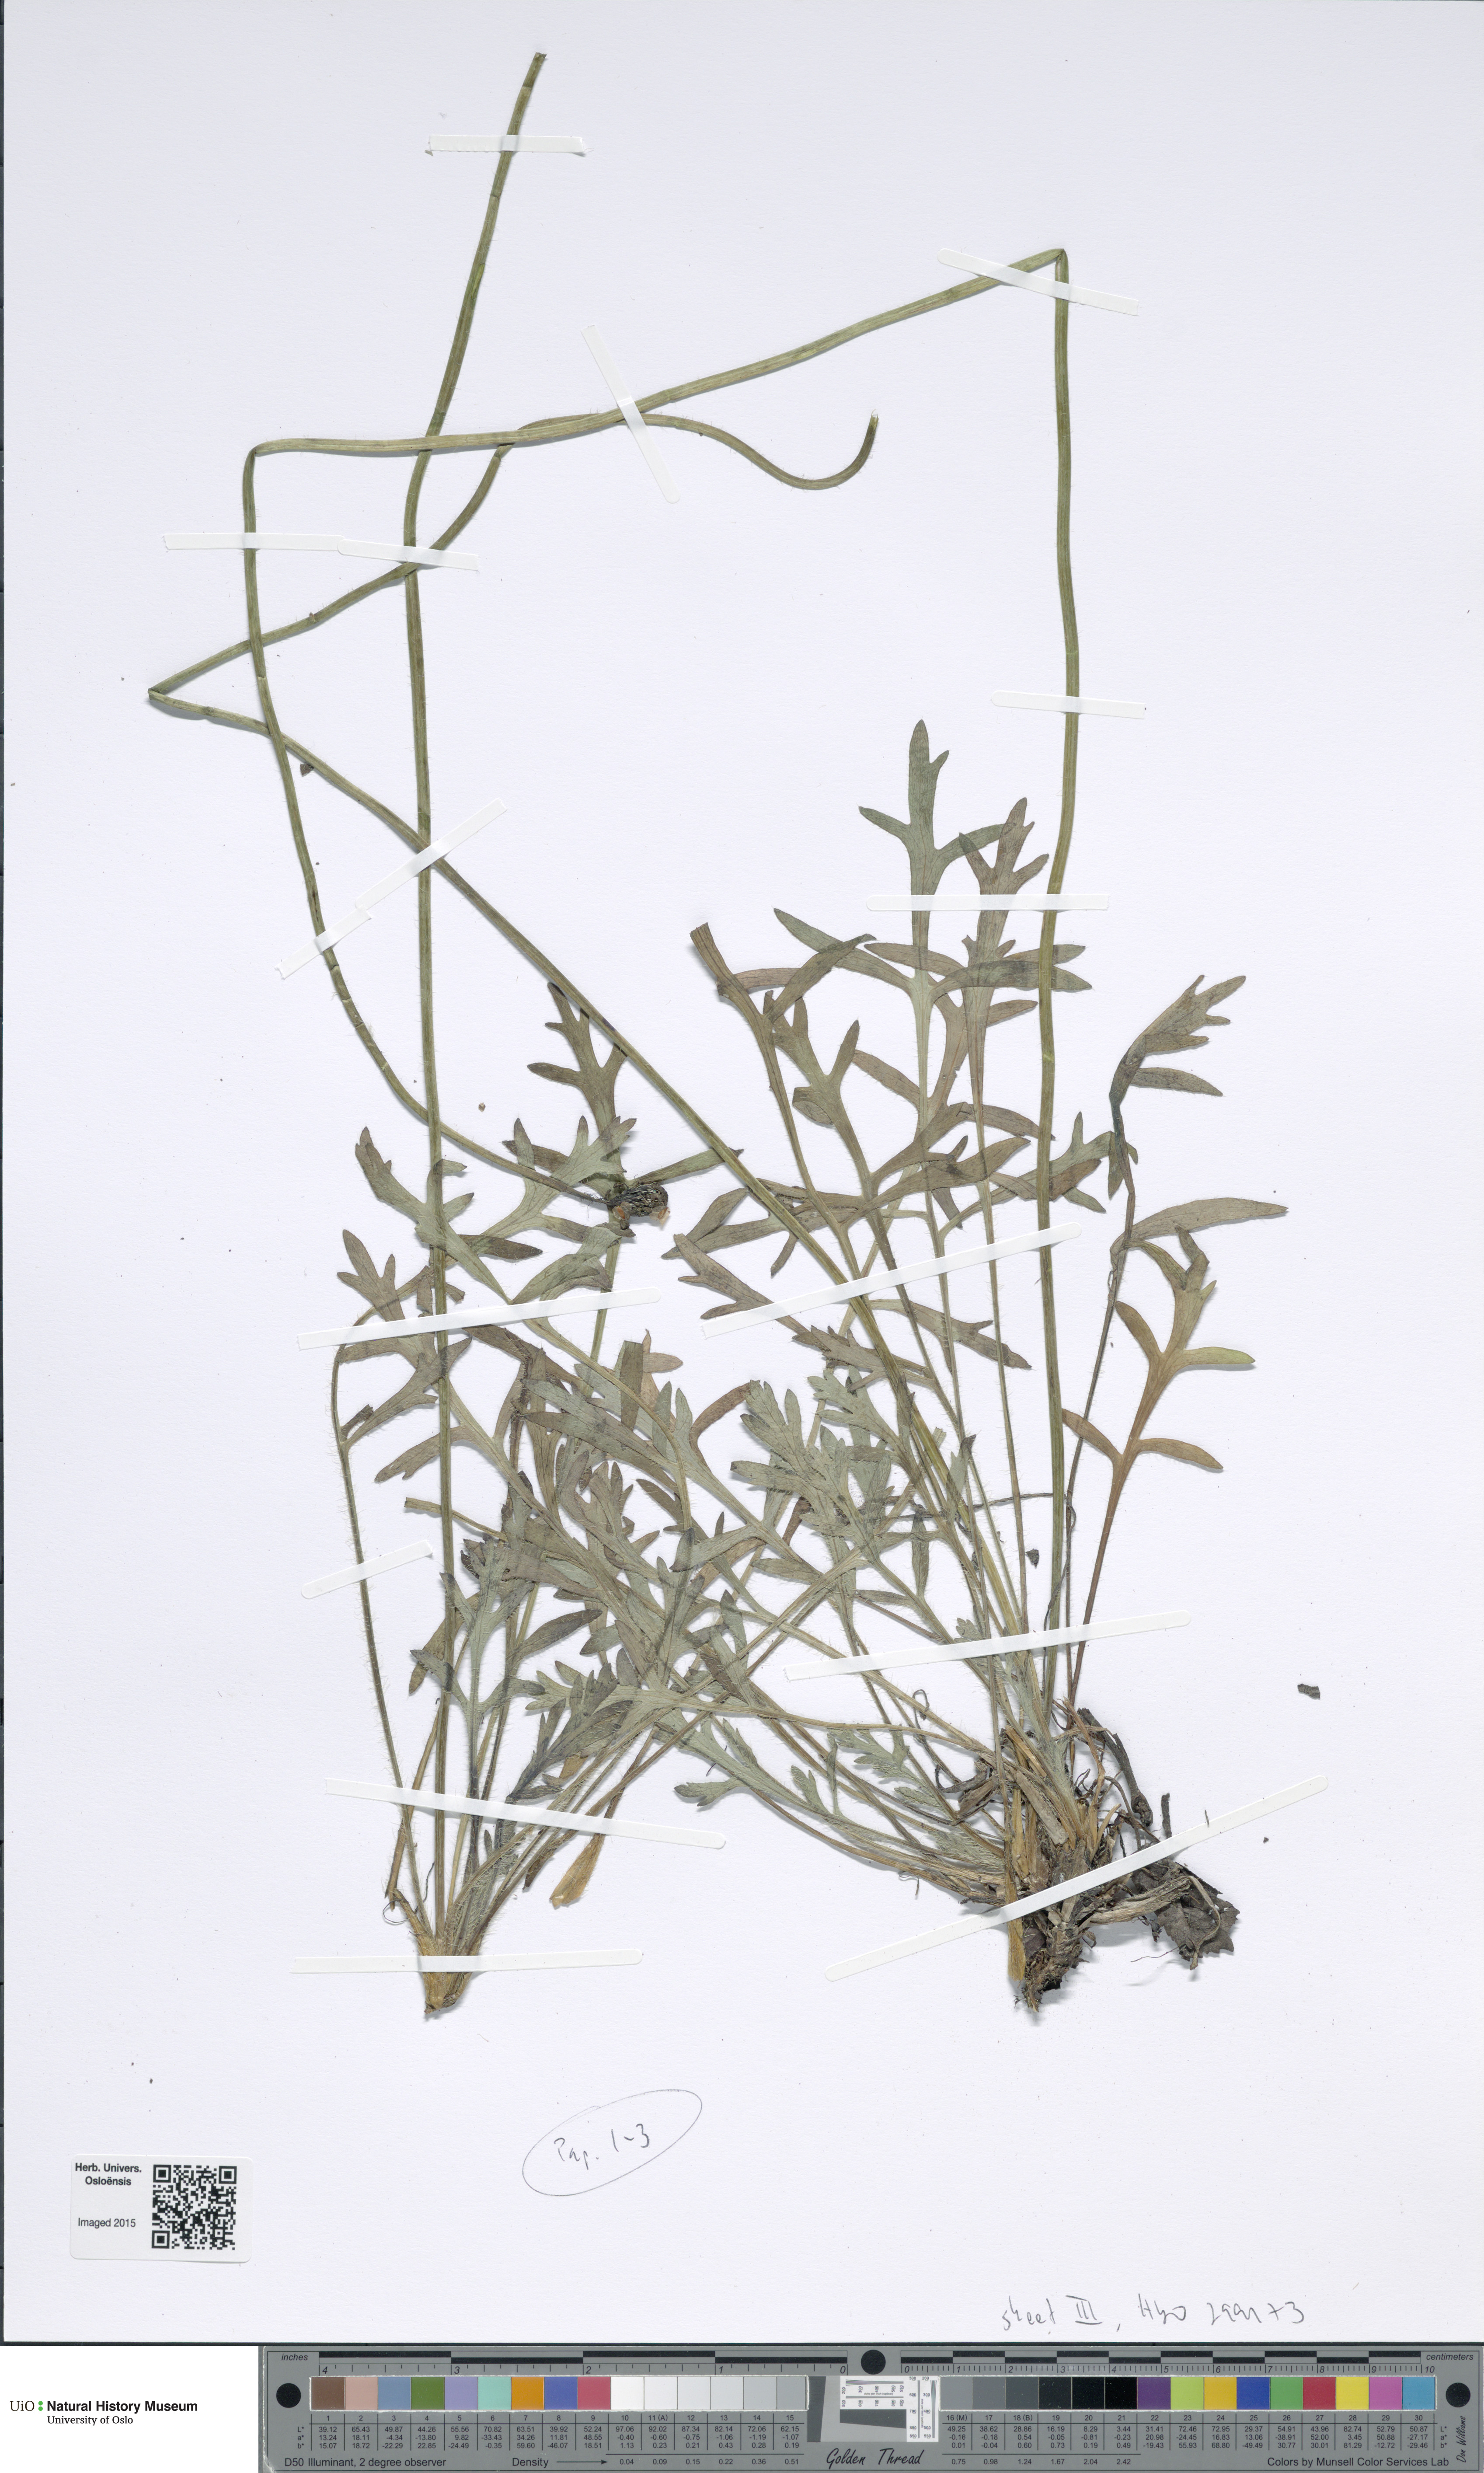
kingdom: Plantae
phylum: Tracheophyta
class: Magnoliopsida
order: Ranunculales
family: Papaveraceae
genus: Papaver
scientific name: Papaver mcconnellii
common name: Mcconnell's poppy
